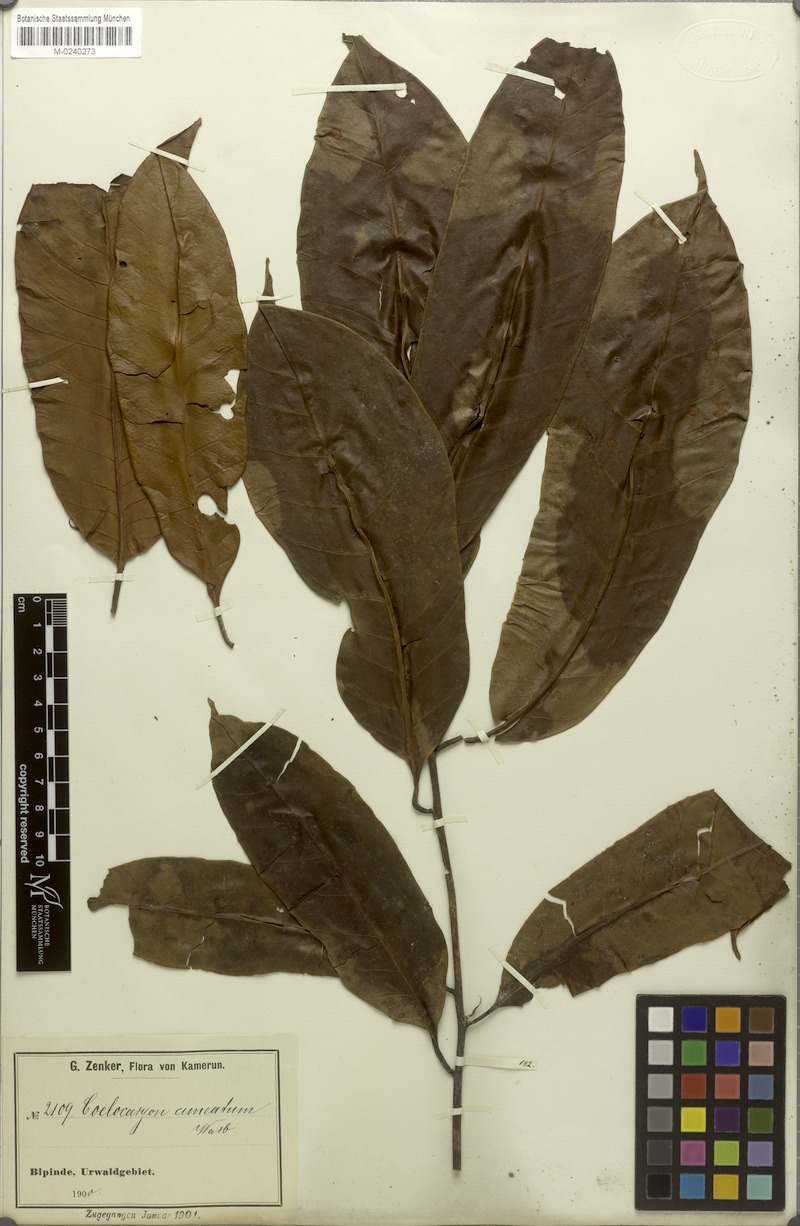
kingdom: Plantae
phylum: Tracheophyta
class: Magnoliopsida
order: Magnoliales
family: Myristicaceae
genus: Coelocaryon
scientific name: Coelocaryon preussii
